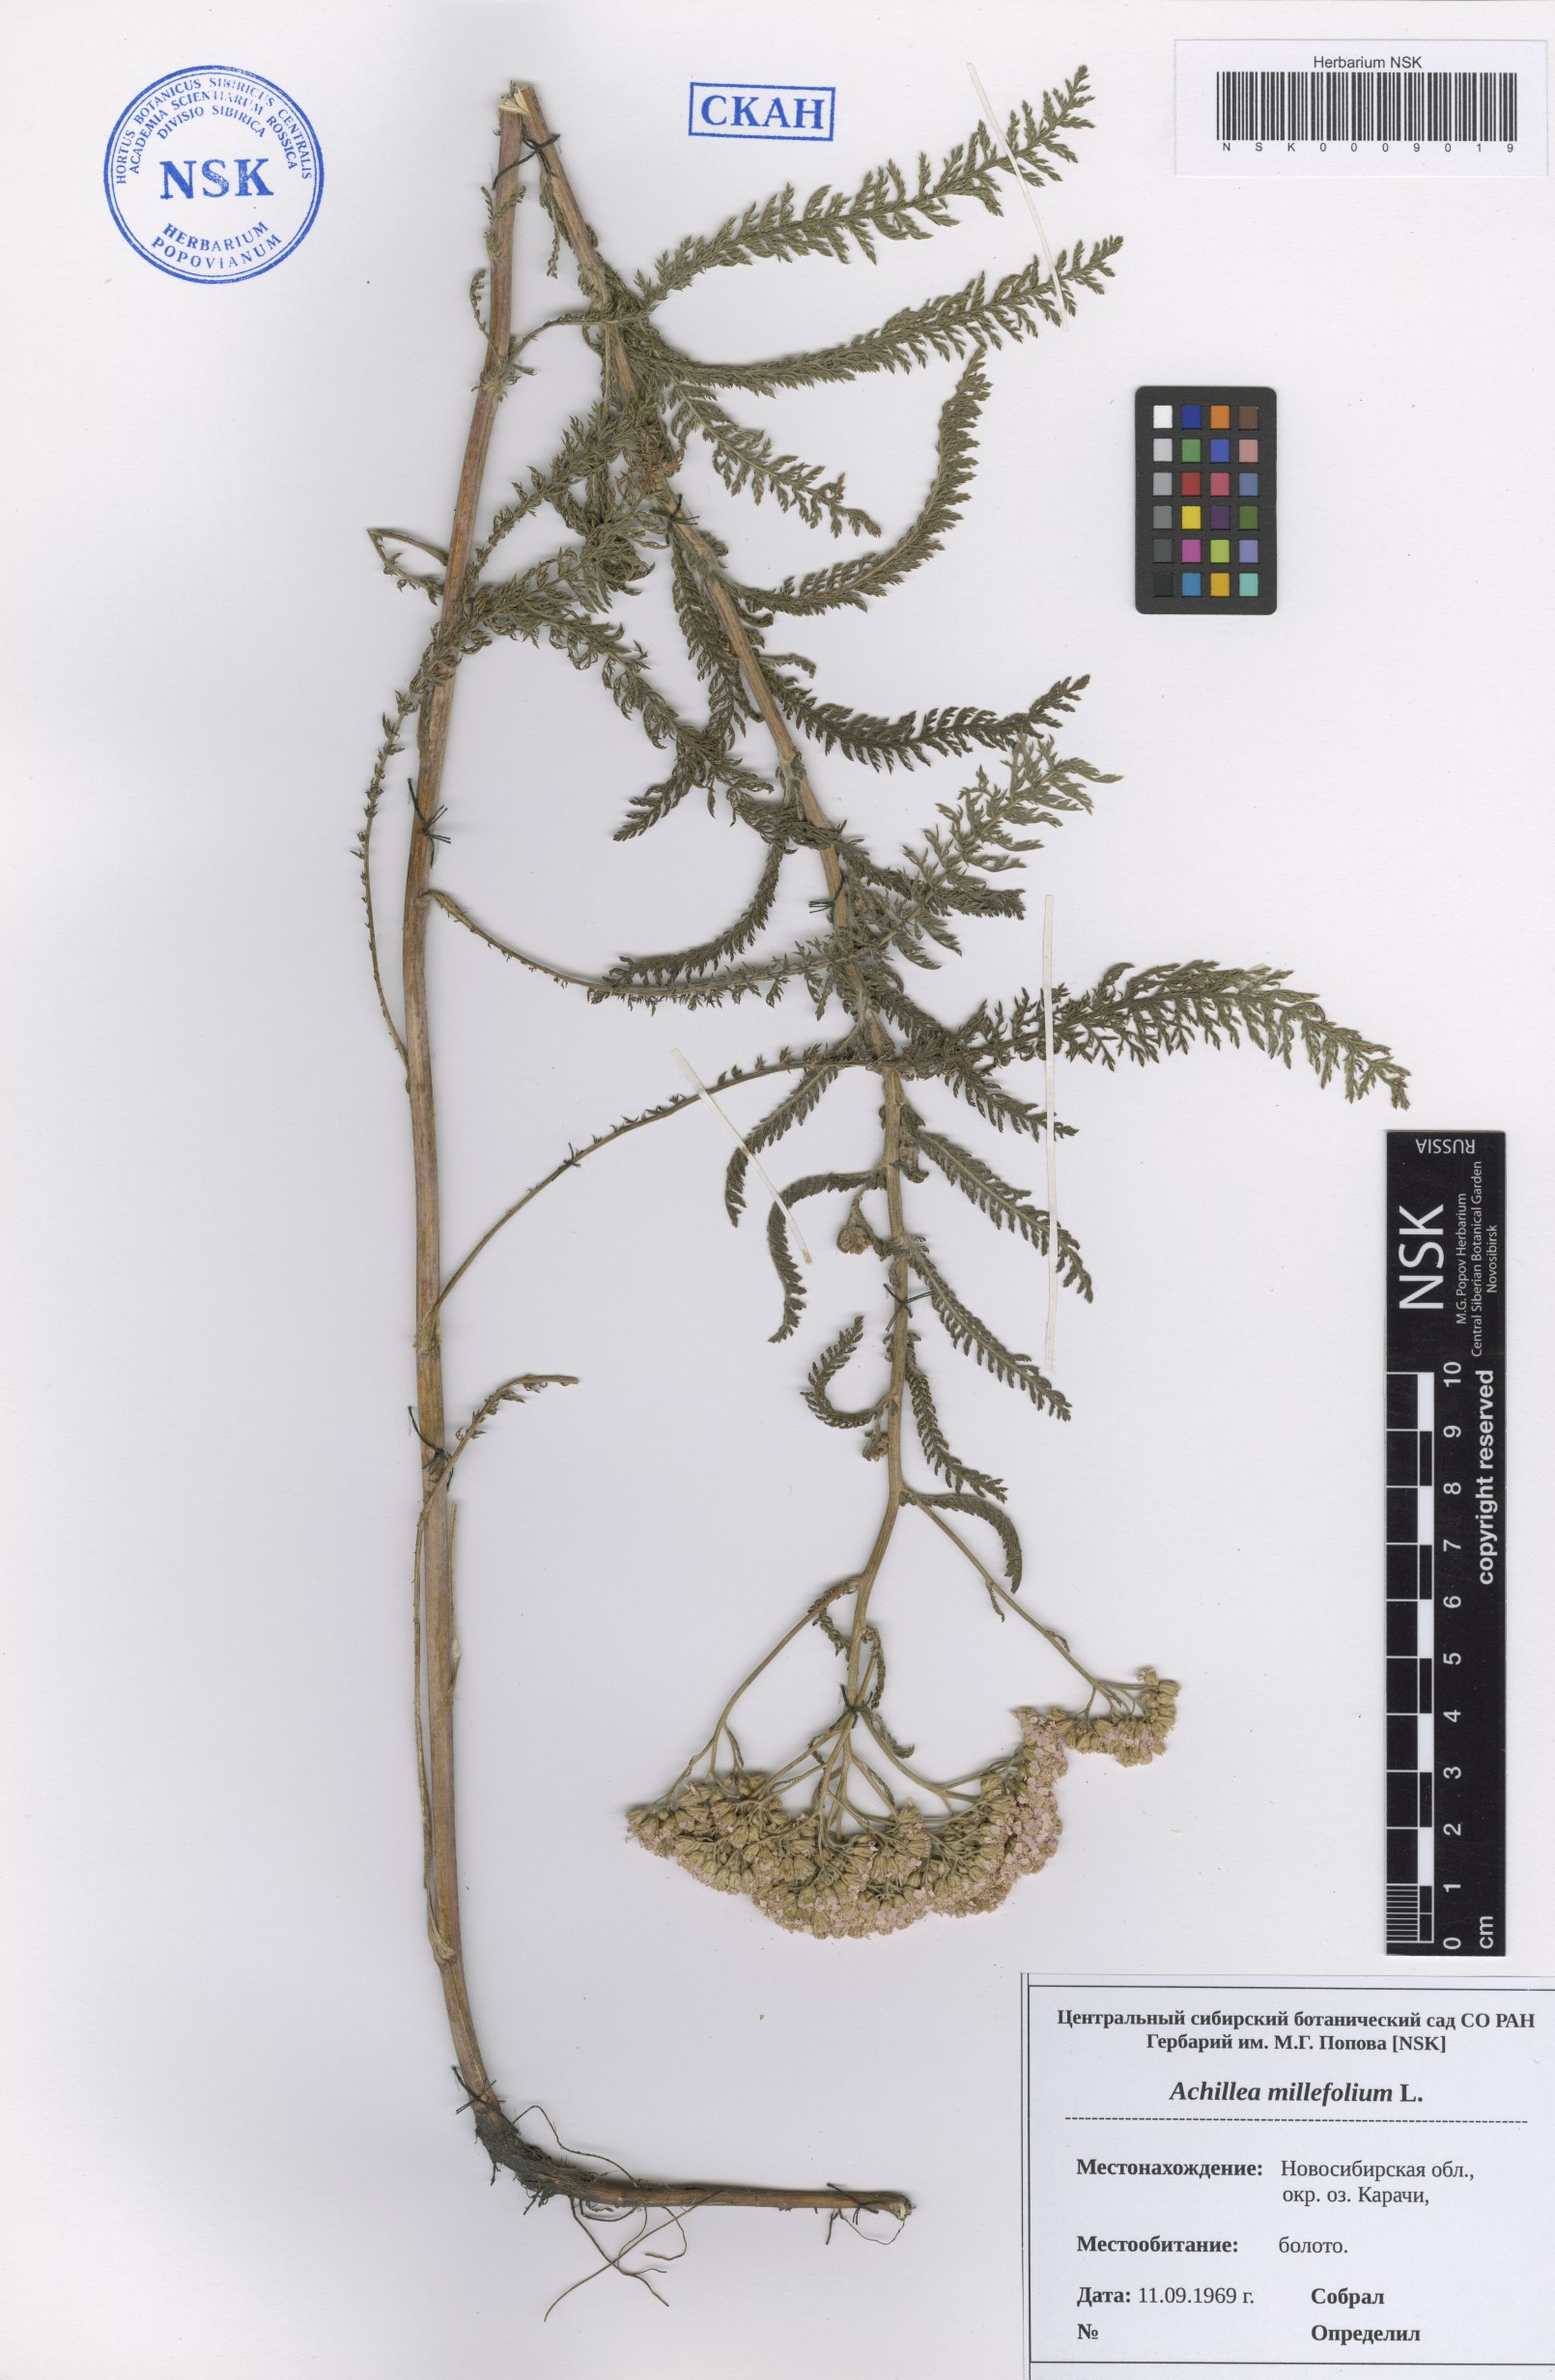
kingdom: Plantae
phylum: Tracheophyta
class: Magnoliopsida
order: Asterales
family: Asteraceae
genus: Achillea
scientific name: Achillea millefolium
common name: Yarrow
